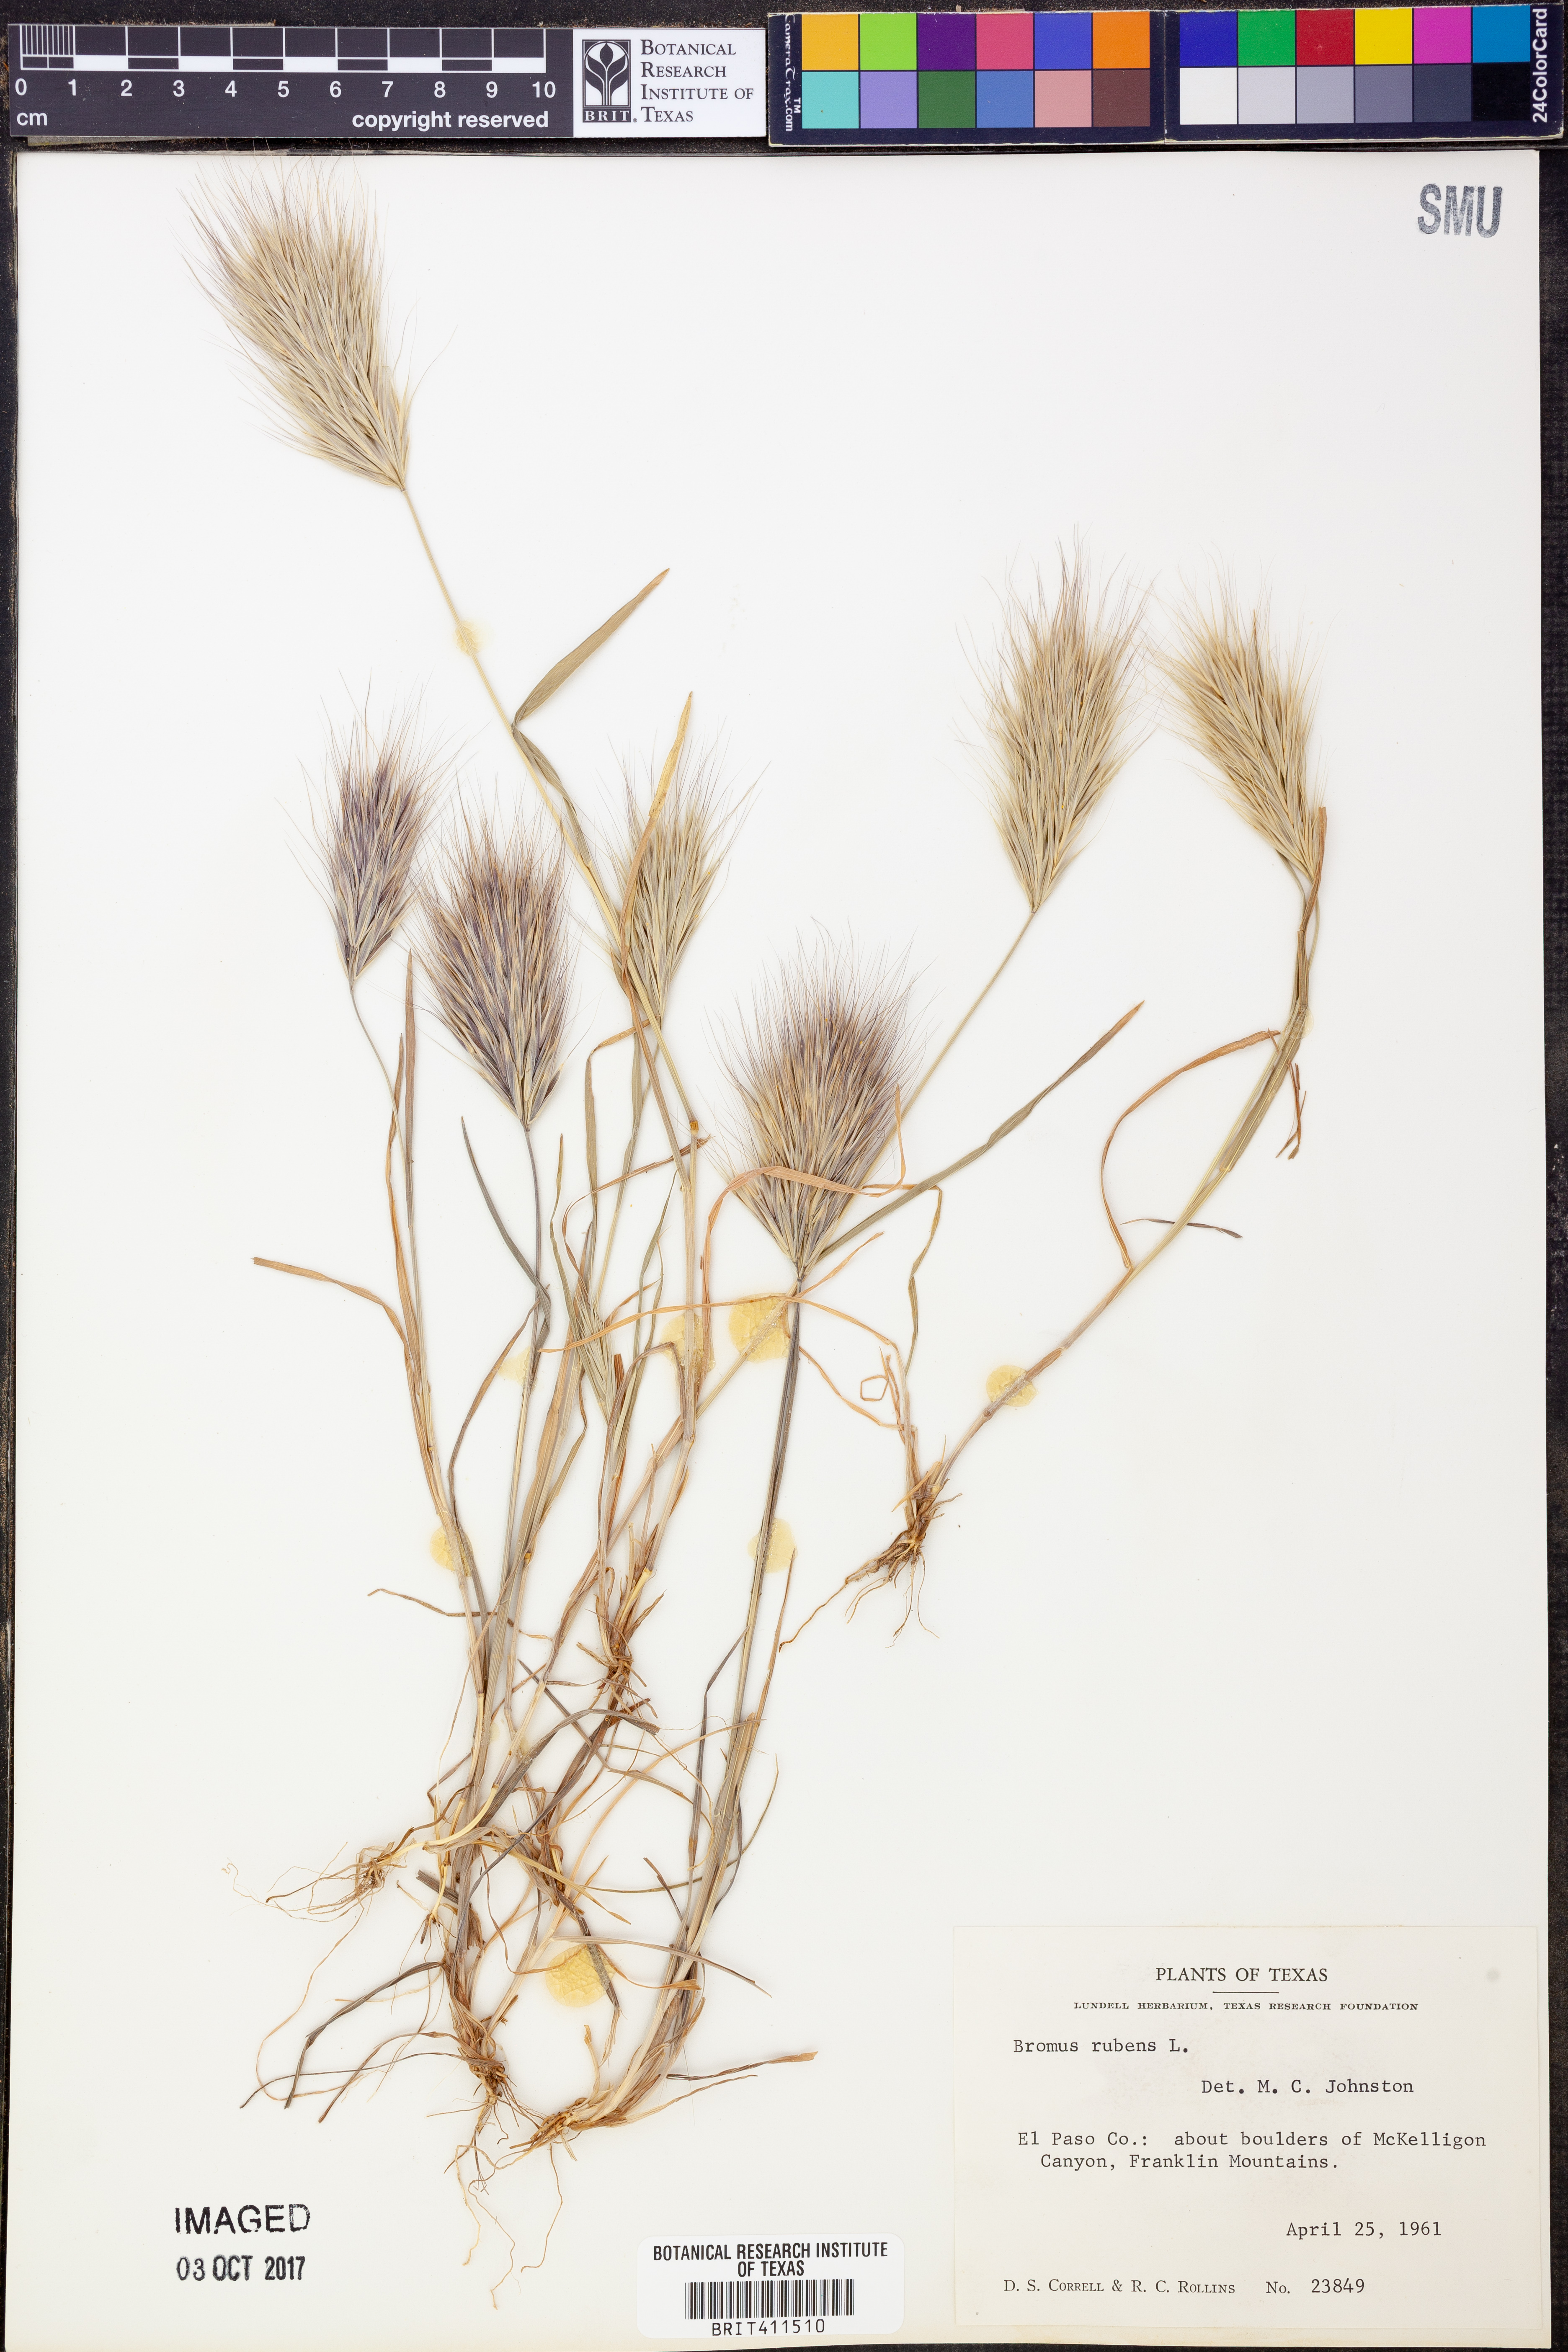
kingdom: Plantae
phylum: Tracheophyta
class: Liliopsida
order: Poales
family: Poaceae
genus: Bromus
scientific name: Bromus rubens
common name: Red brome
